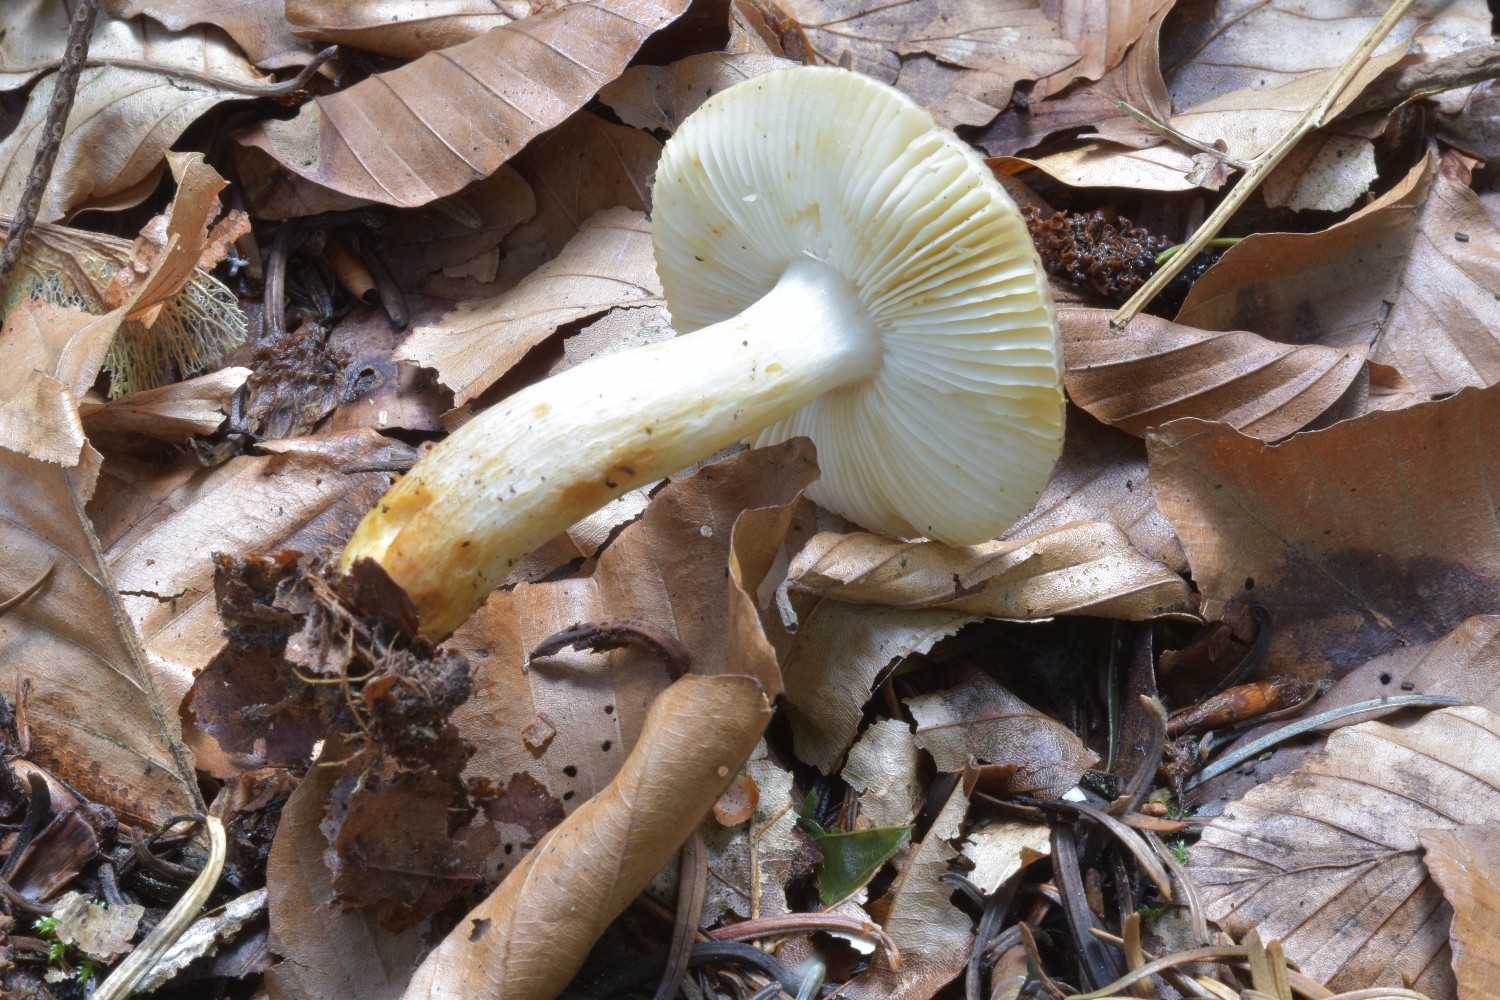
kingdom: Fungi
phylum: Basidiomycota
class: Agaricomycetes
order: Russulales
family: Russulaceae
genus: Russula
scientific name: Russula puellaris
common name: gulstokket skørhat
